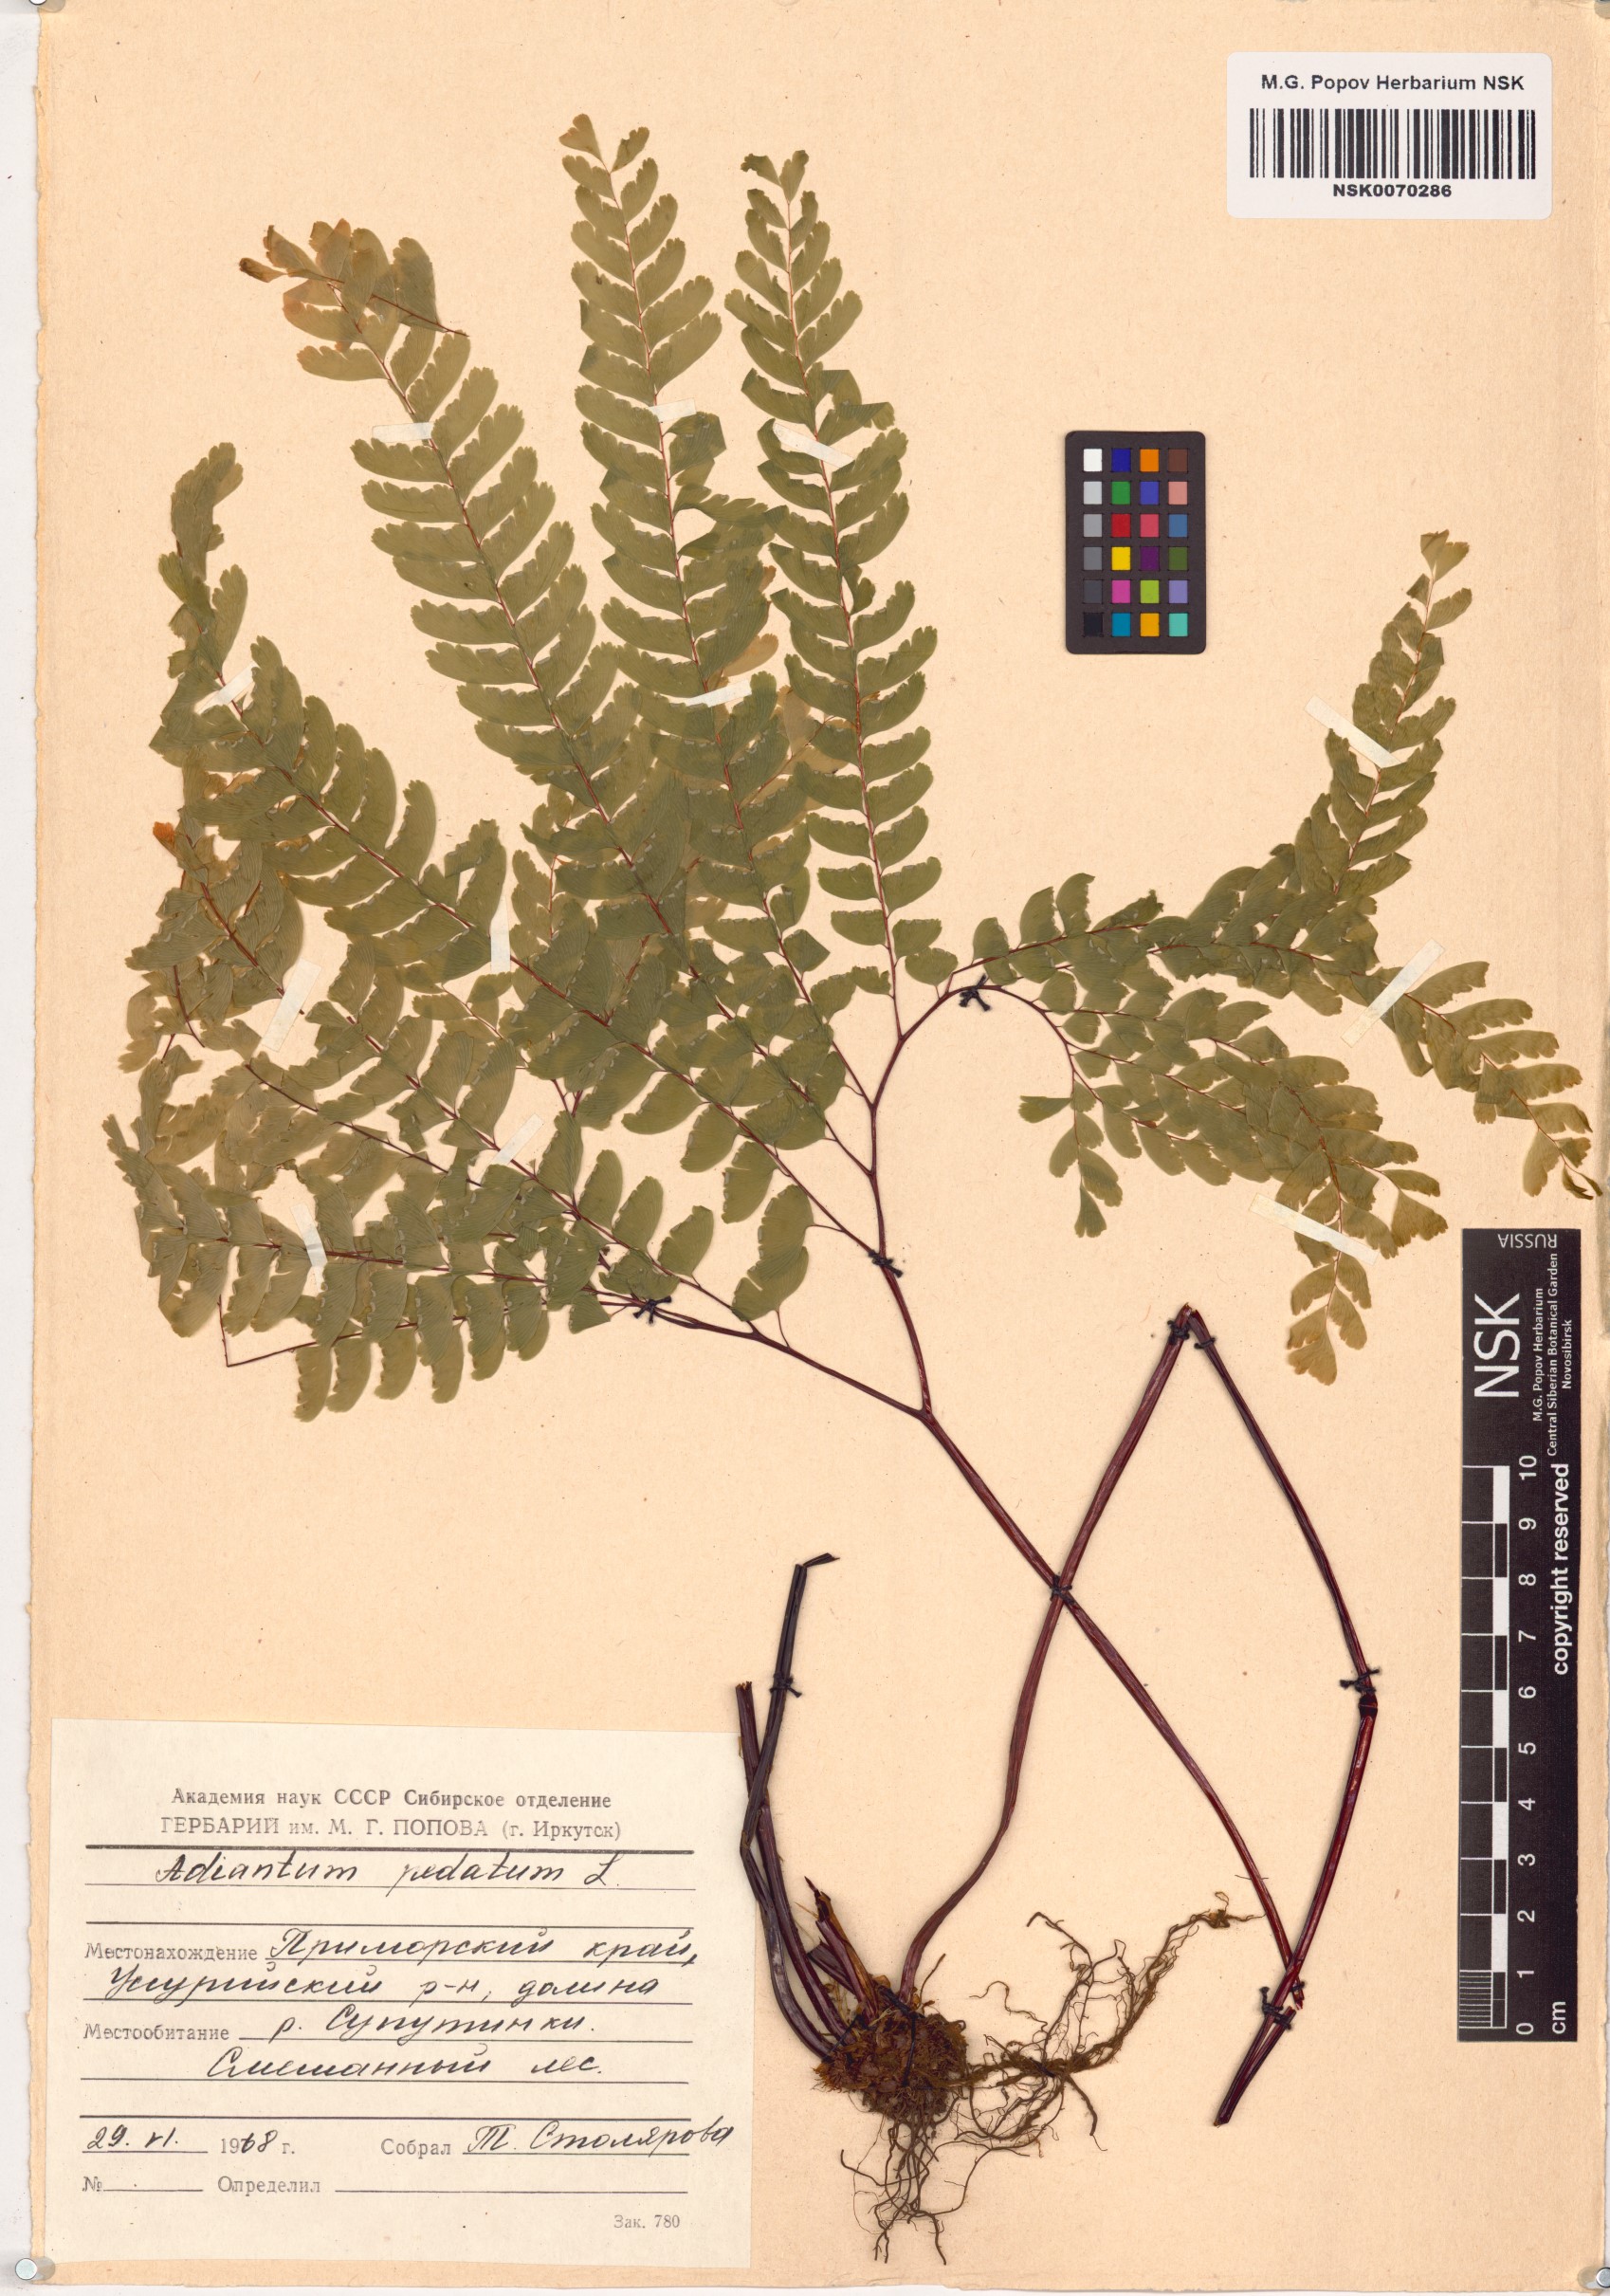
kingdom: Plantae
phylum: Tracheophyta
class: Polypodiopsida
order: Polypodiales
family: Pteridaceae
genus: Adiantum
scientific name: Adiantum pedatum
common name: Five-finger fern
